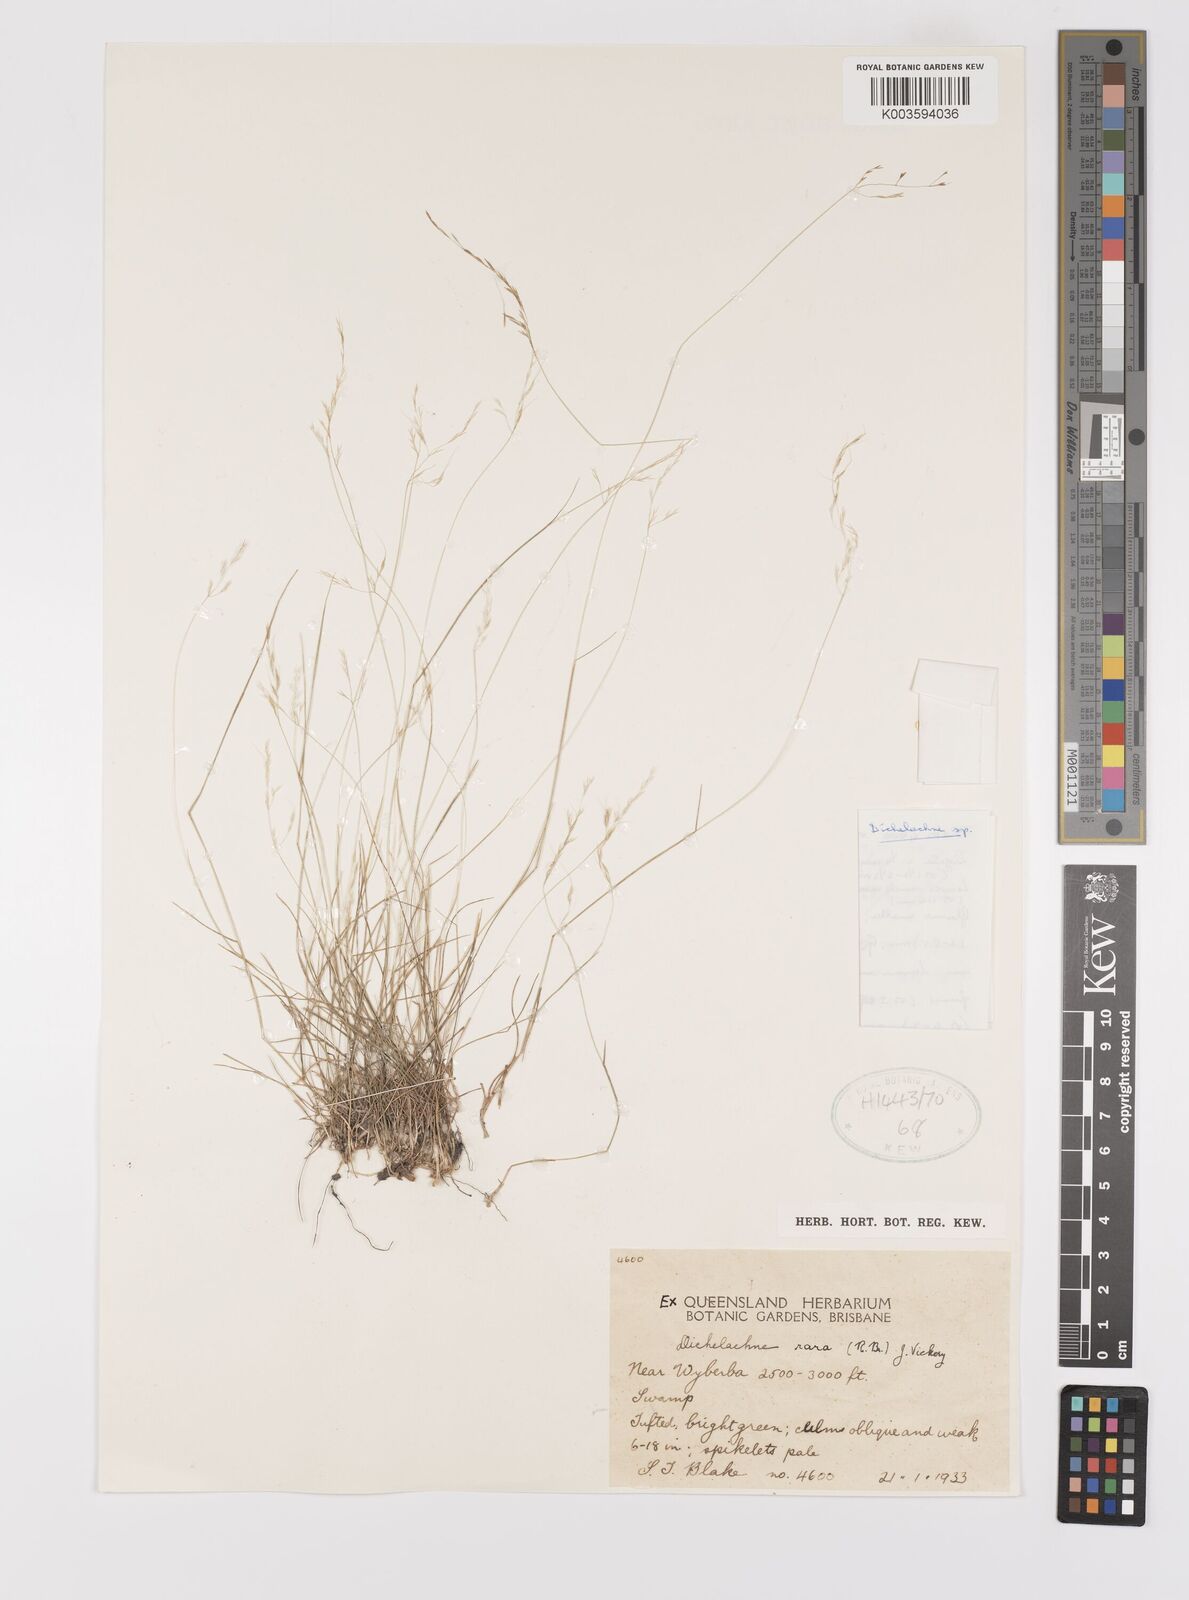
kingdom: Plantae
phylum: Tracheophyta
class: Liliopsida
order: Poales
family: Poaceae
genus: Dichelachne
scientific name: Dichelachne rara
